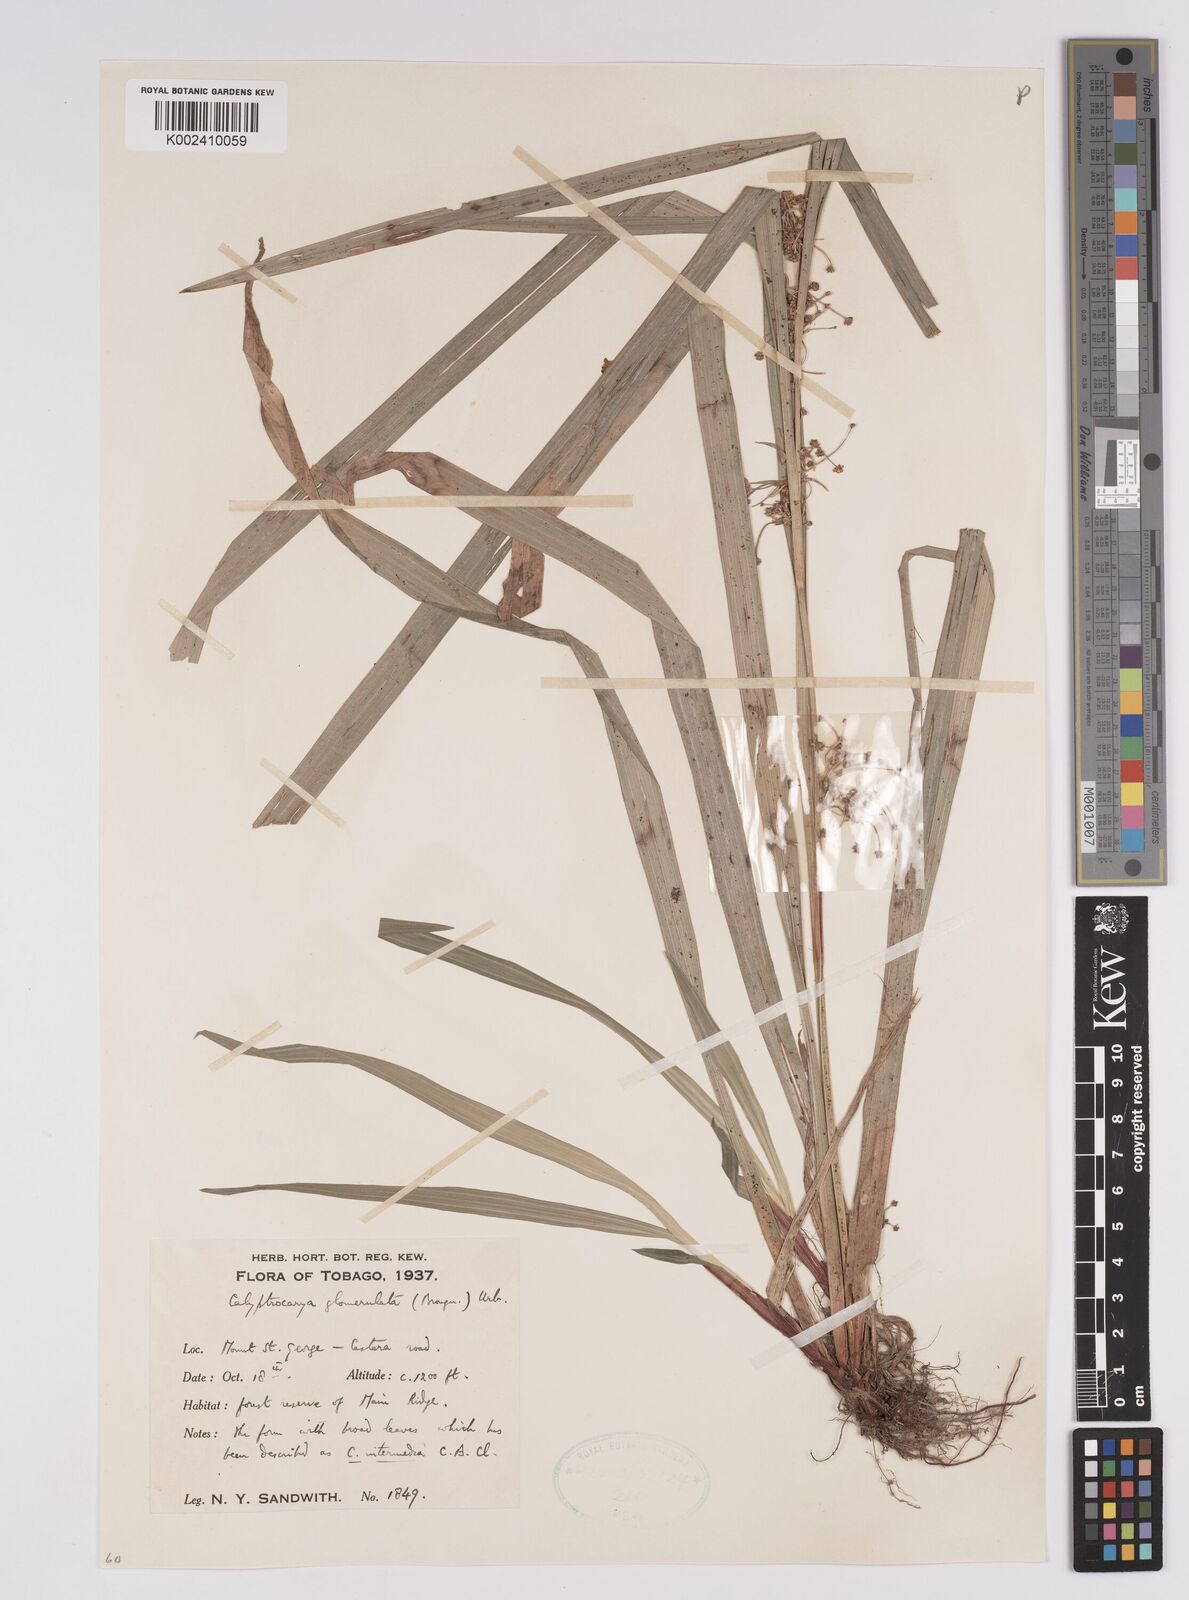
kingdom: Plantae
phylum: Tracheophyta
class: Liliopsida
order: Poales
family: Cyperaceae
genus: Calyptrocarya
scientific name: Calyptrocarya glomerulata
